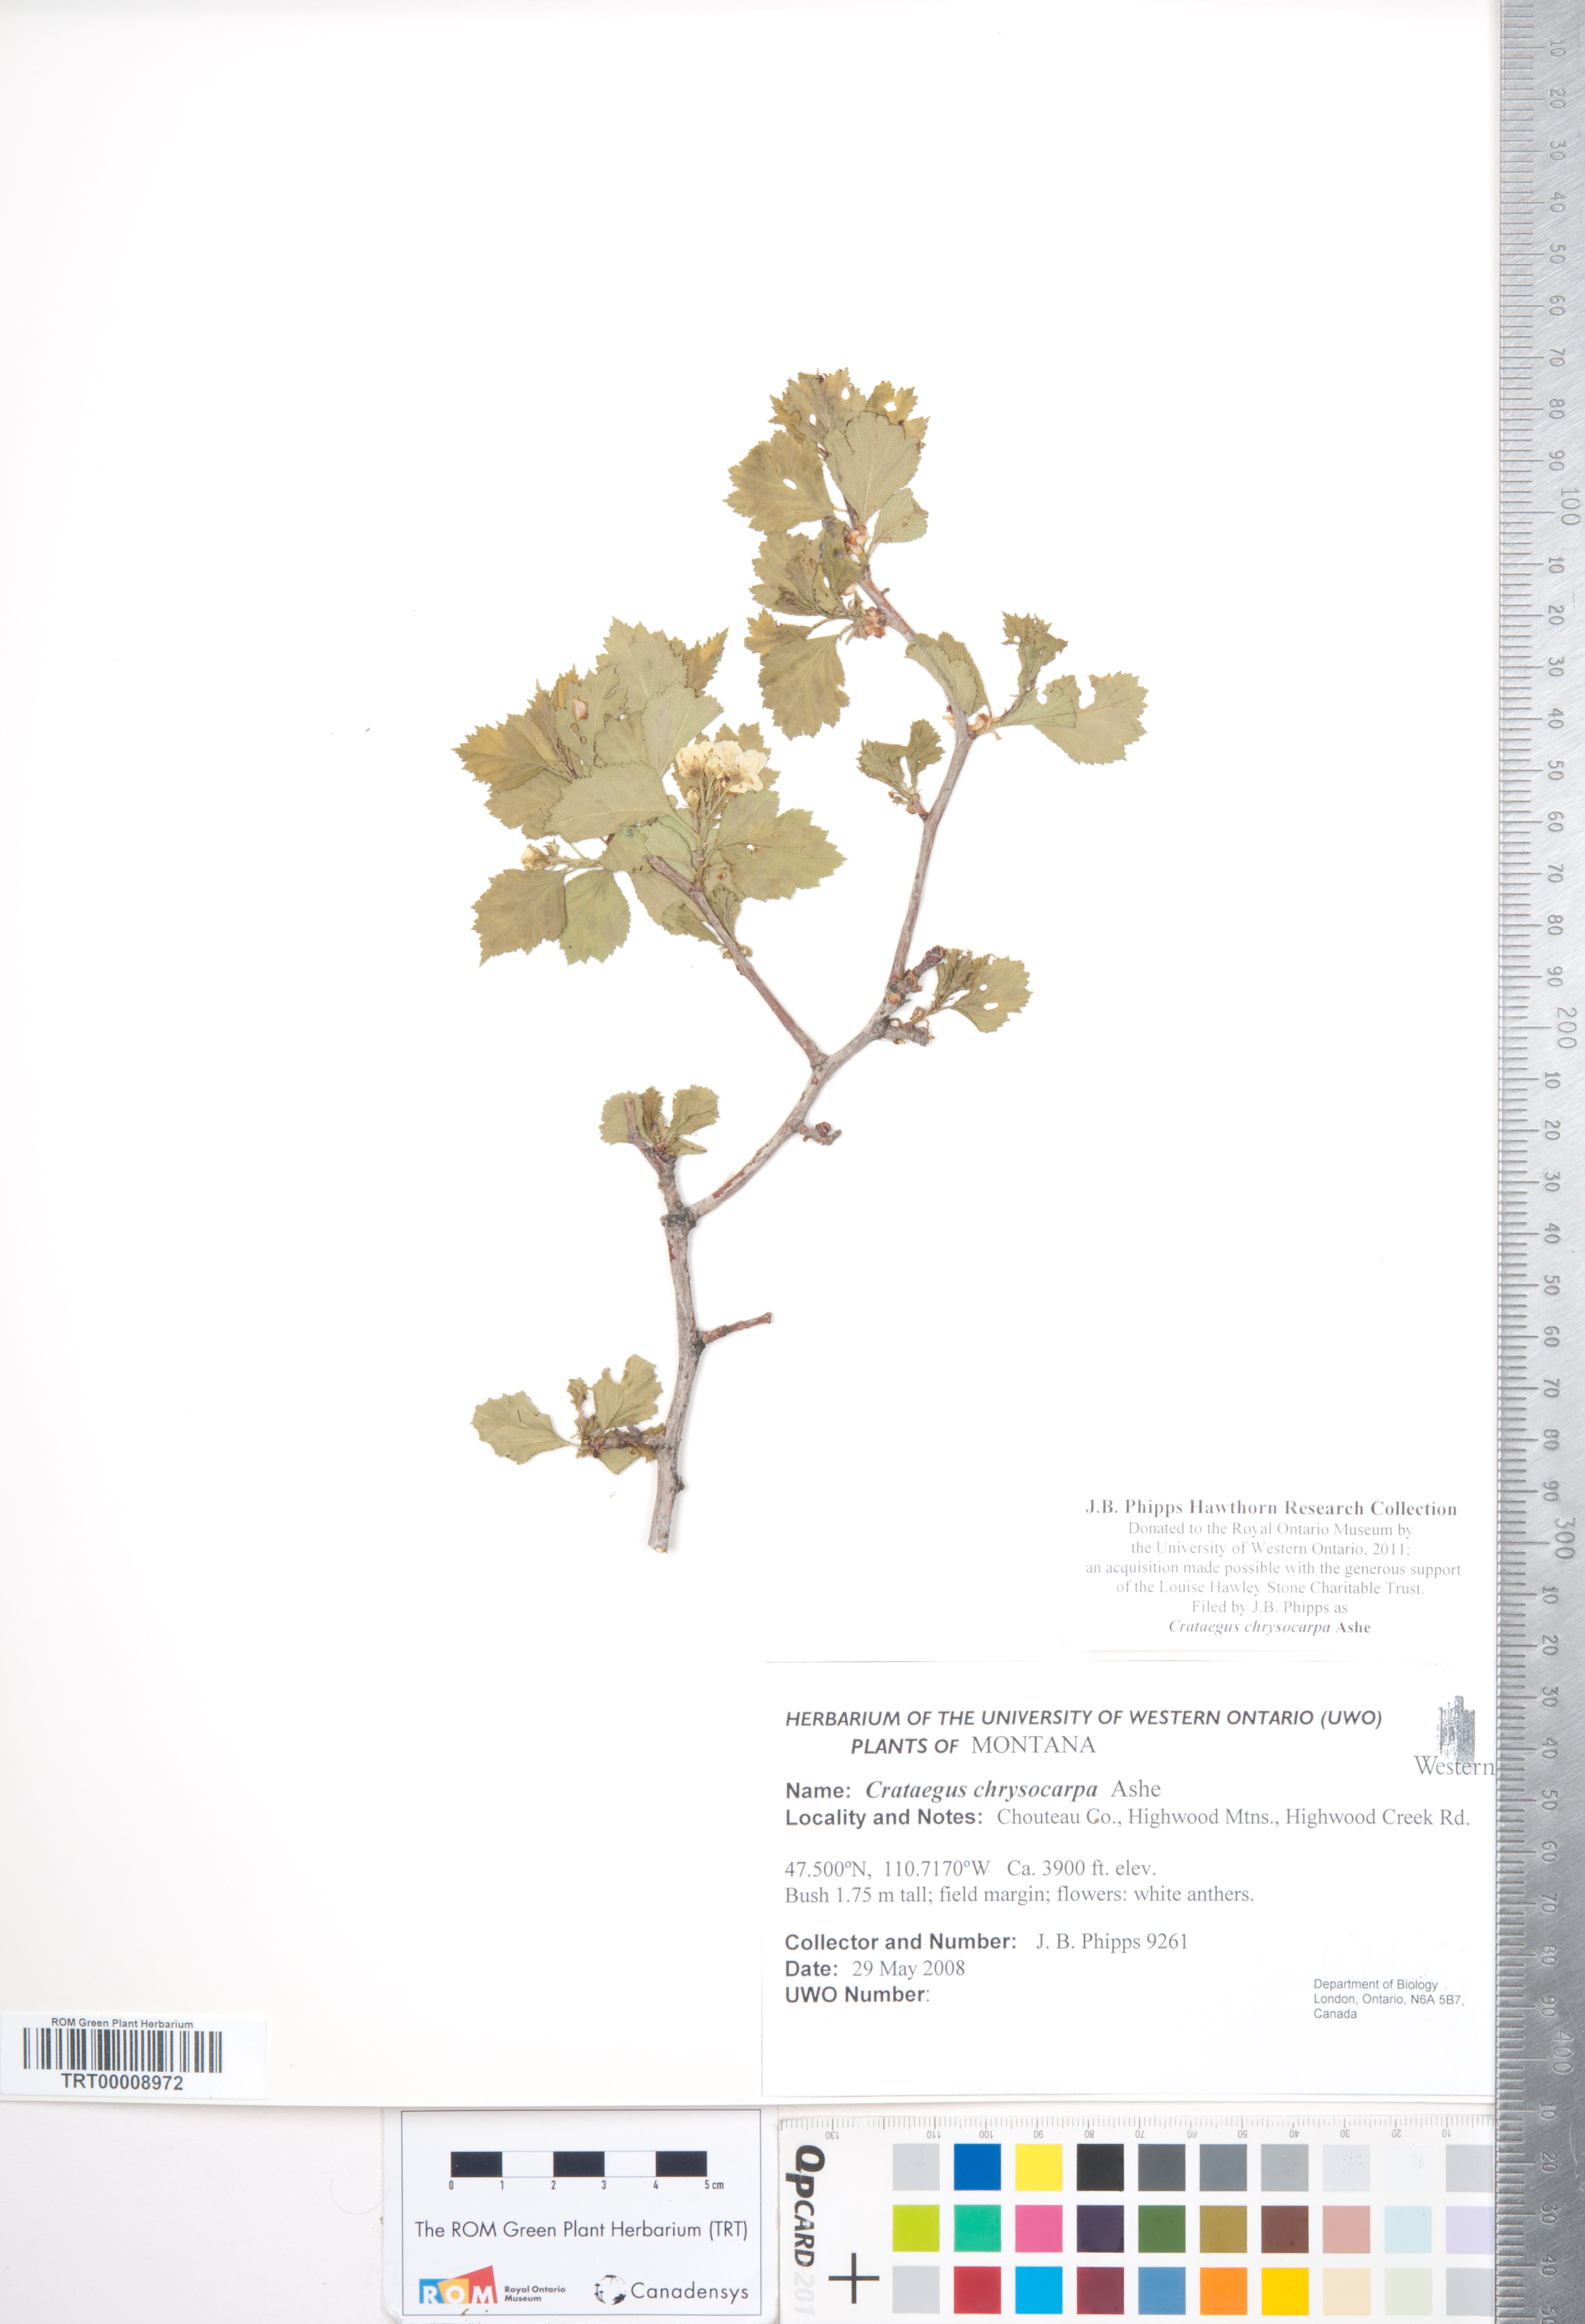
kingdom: Plantae
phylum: Tracheophyta
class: Magnoliopsida
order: Rosales
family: Rosaceae
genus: Crataegus
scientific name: Crataegus chrysocarpa
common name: Fire-berry hawthorn
